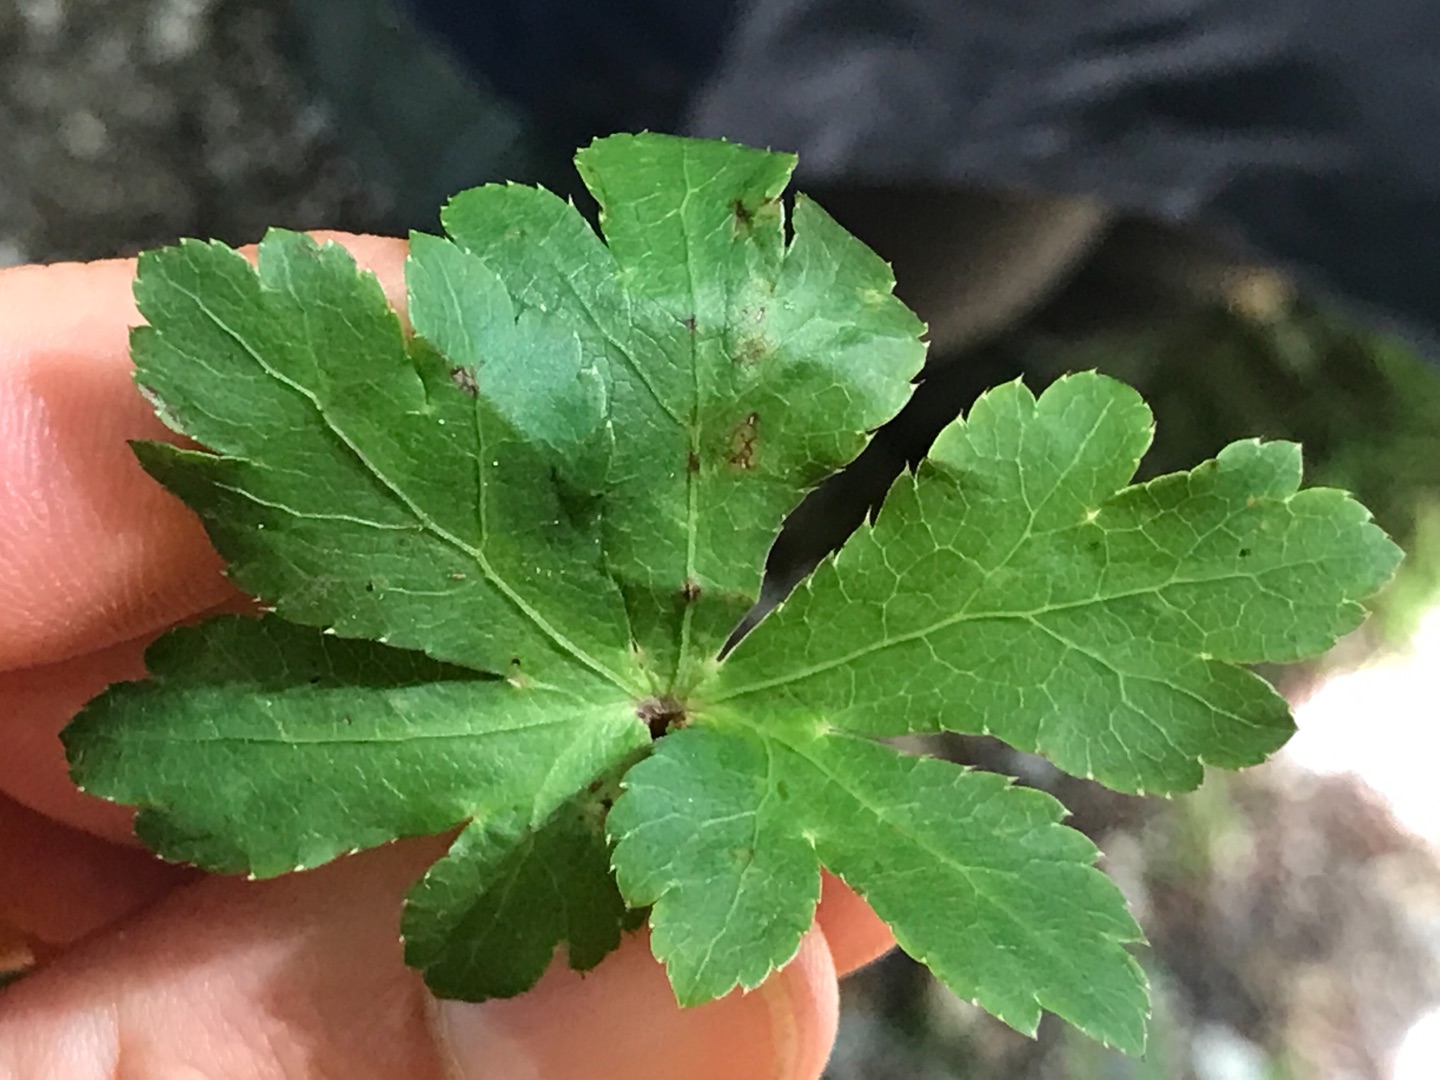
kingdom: Plantae
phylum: Tracheophyta
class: Magnoliopsida
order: Apiales
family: Apiaceae
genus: Sanicula
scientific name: Sanicula europaea
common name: Sanikel
